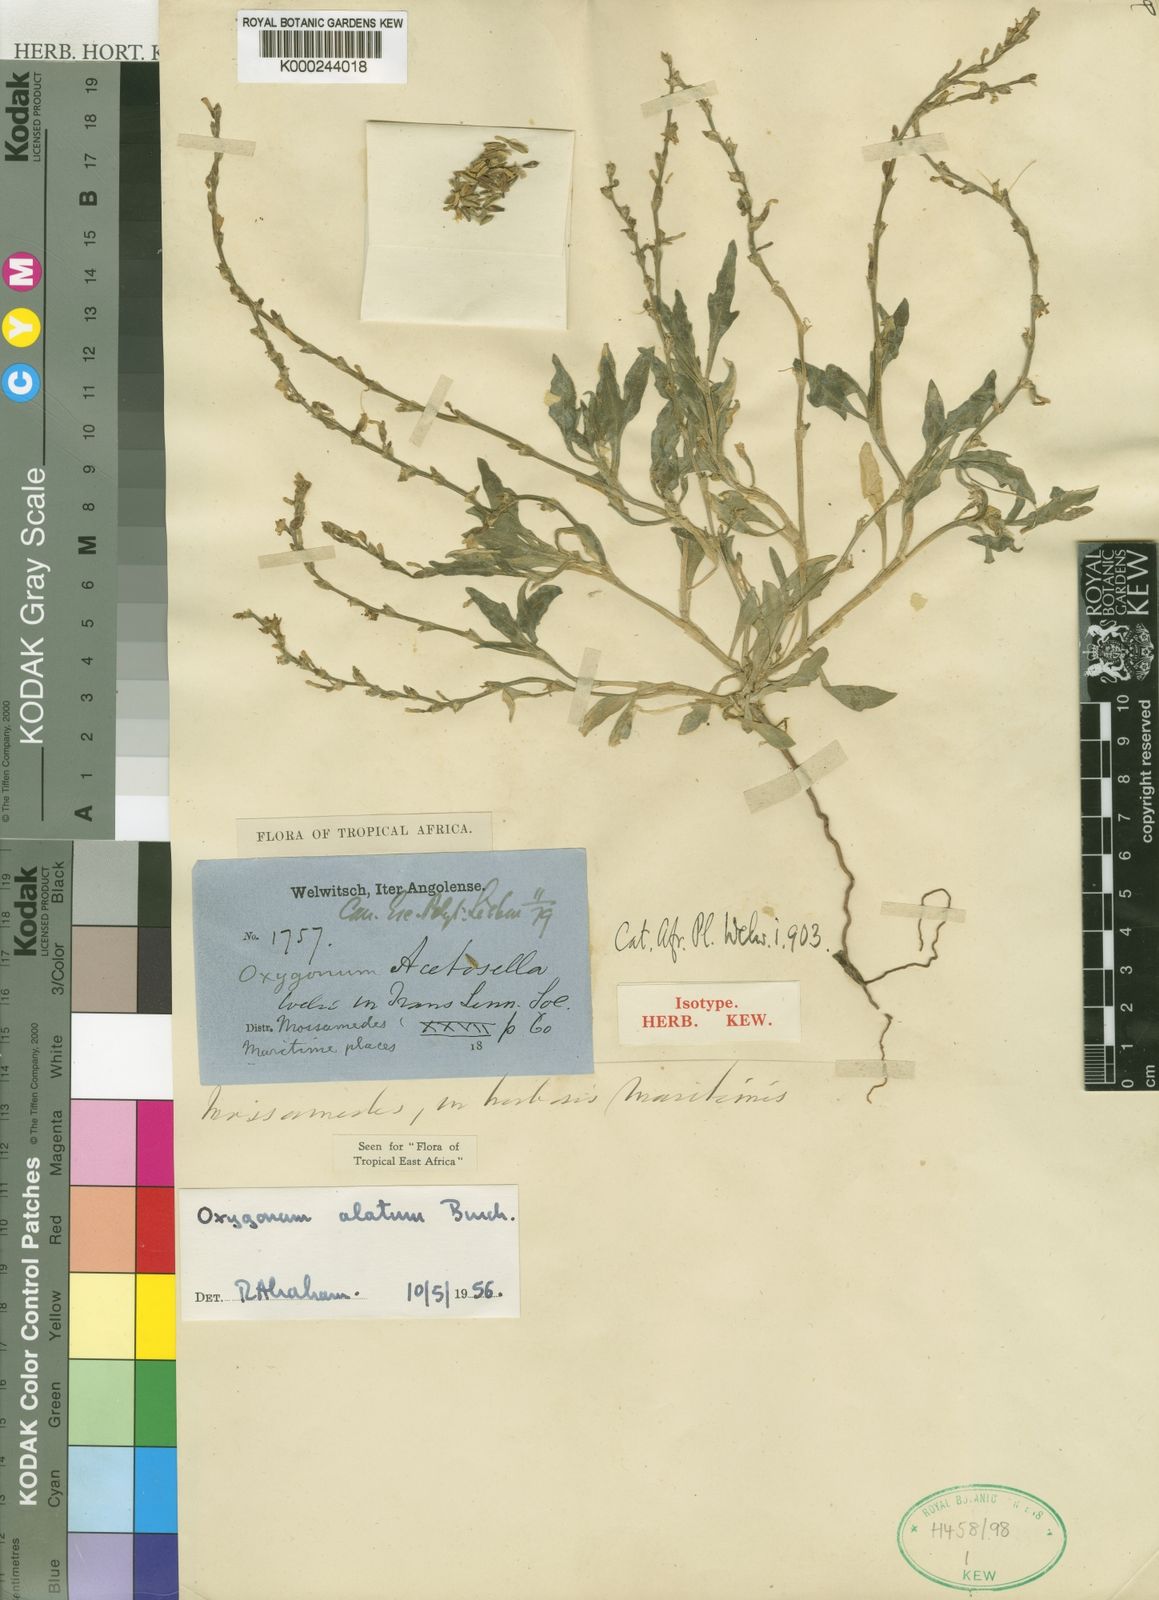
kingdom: Plantae
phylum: Tracheophyta
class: Magnoliopsida
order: Caryophyllales
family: Polygonaceae
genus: Oxygonum
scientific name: Oxygonum alatum
